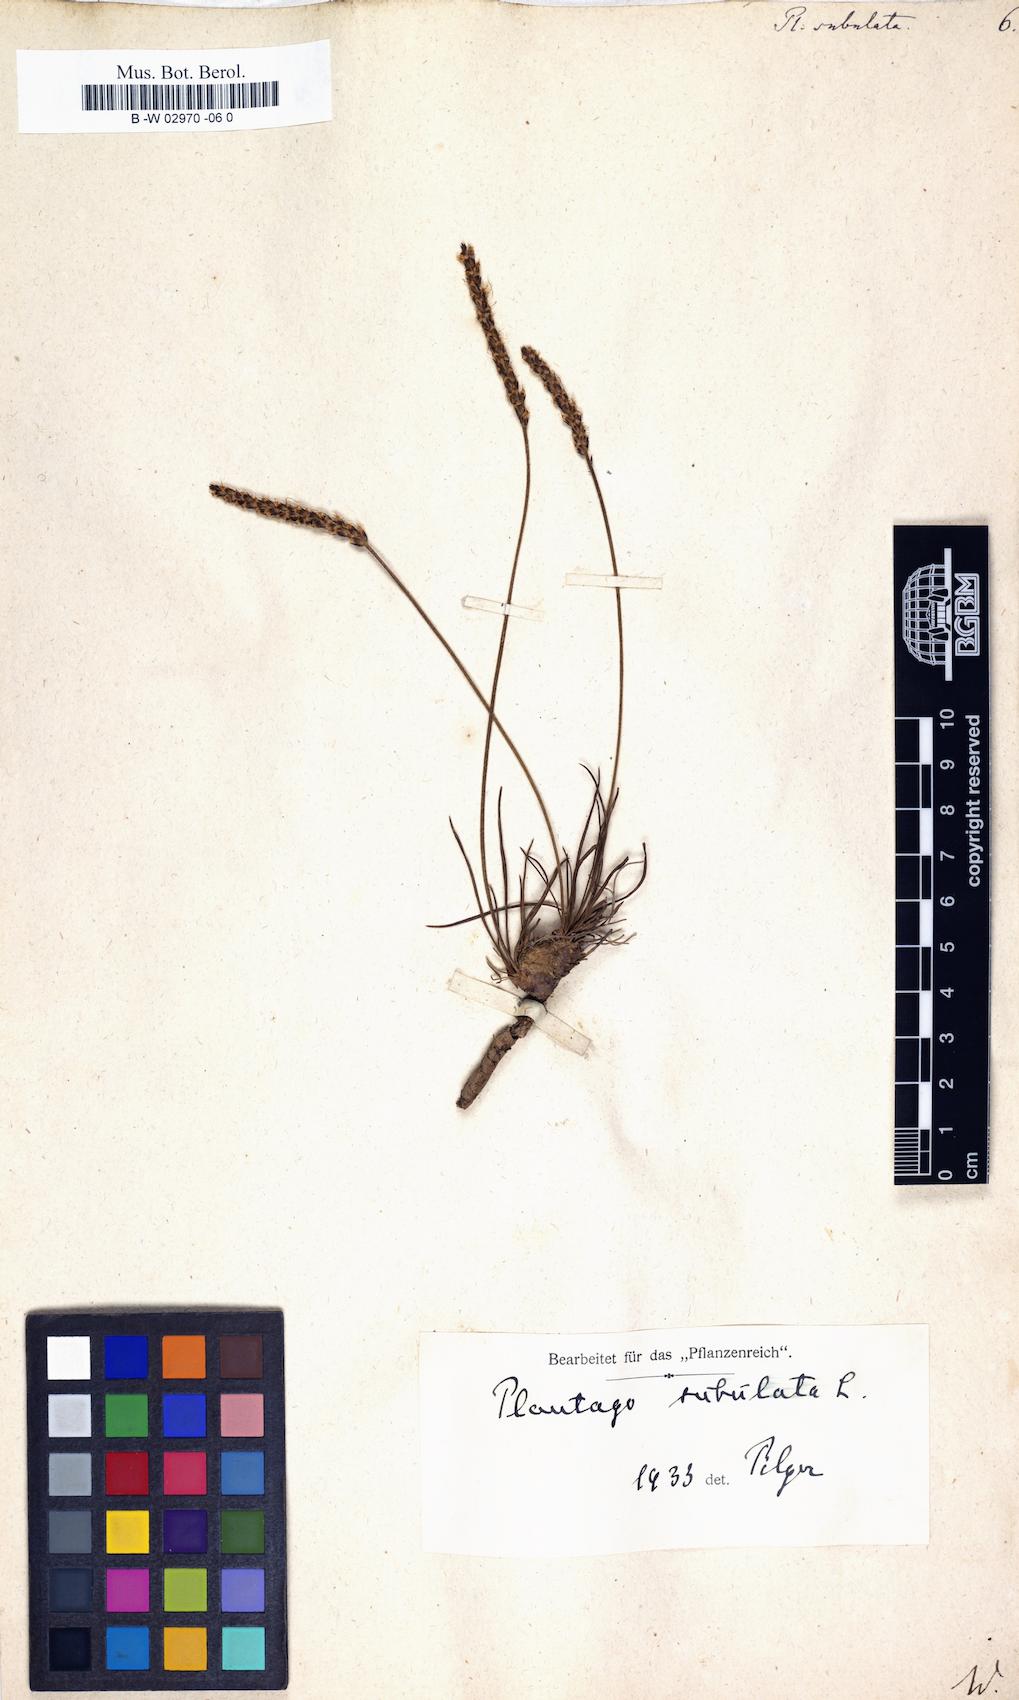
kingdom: Plantae
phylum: Tracheophyta
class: Magnoliopsida
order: Lamiales
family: Plantaginaceae
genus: Plantago
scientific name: Plantago subulata
